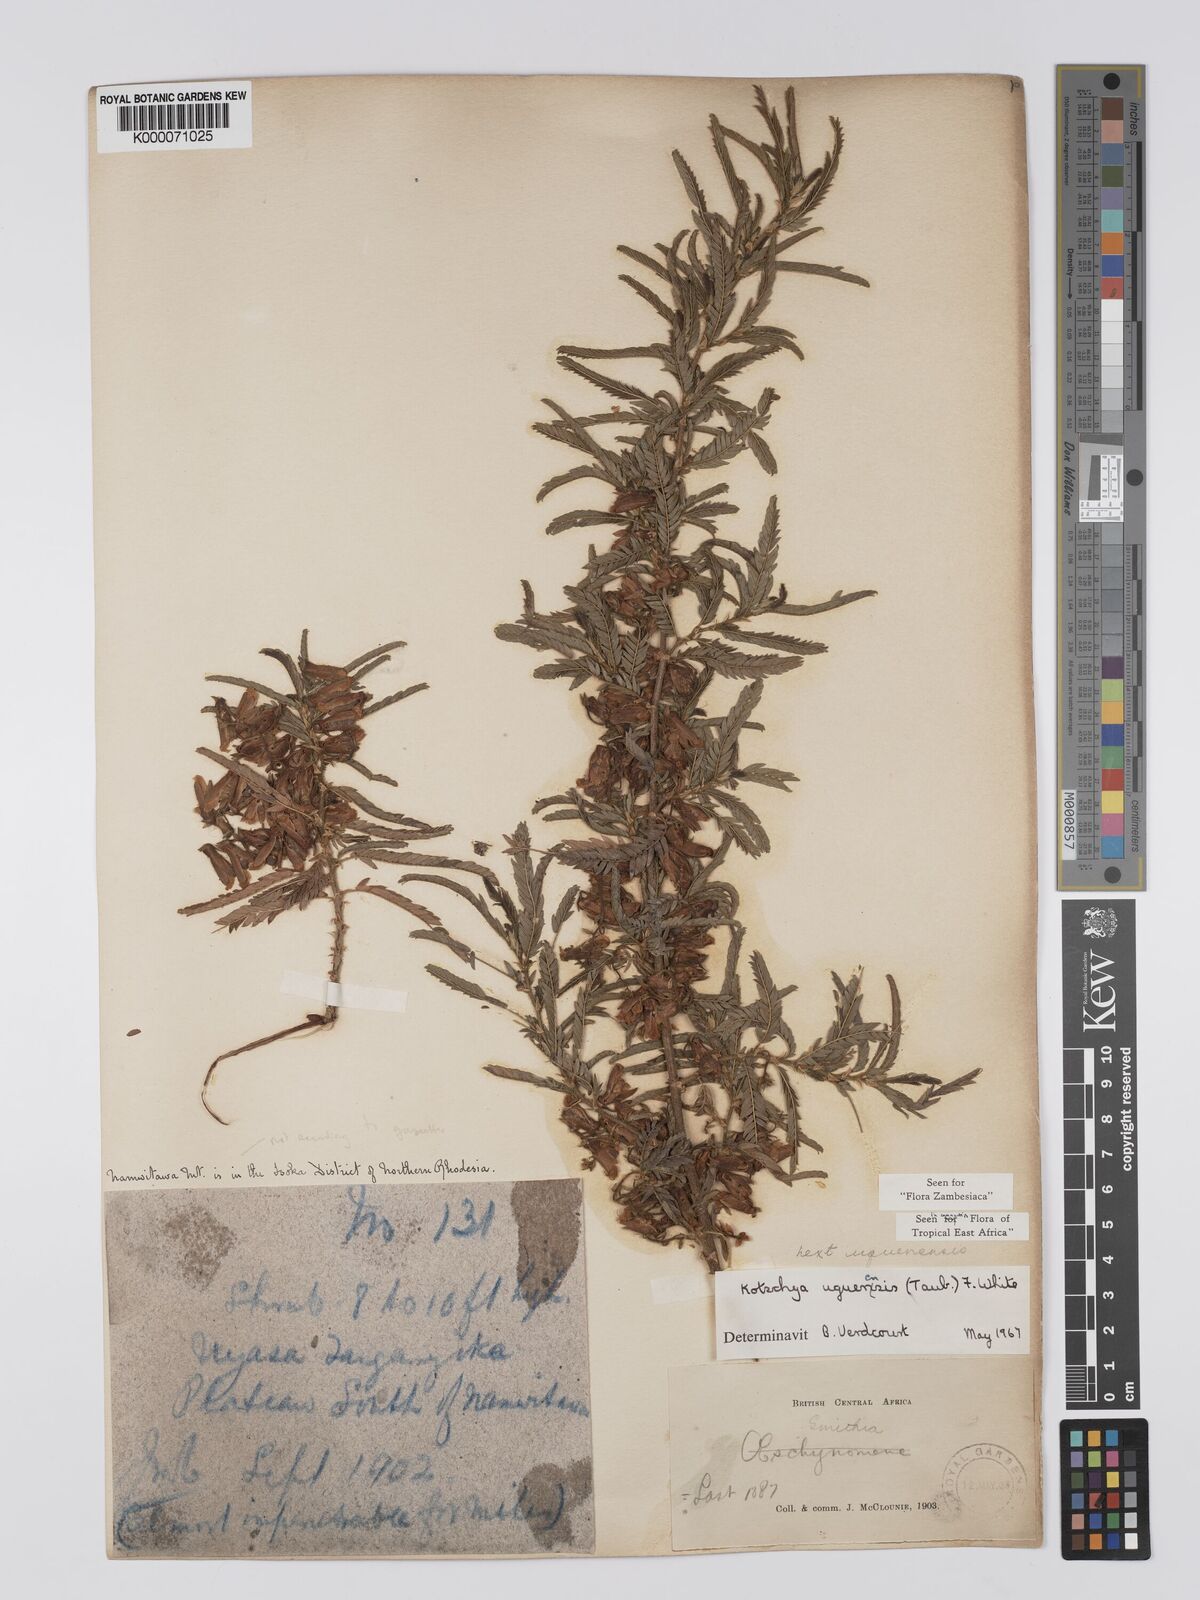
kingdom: Plantae
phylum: Tracheophyta
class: Magnoliopsida
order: Fabales
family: Fabaceae
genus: Kotschya
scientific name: Kotschya uguenensis
